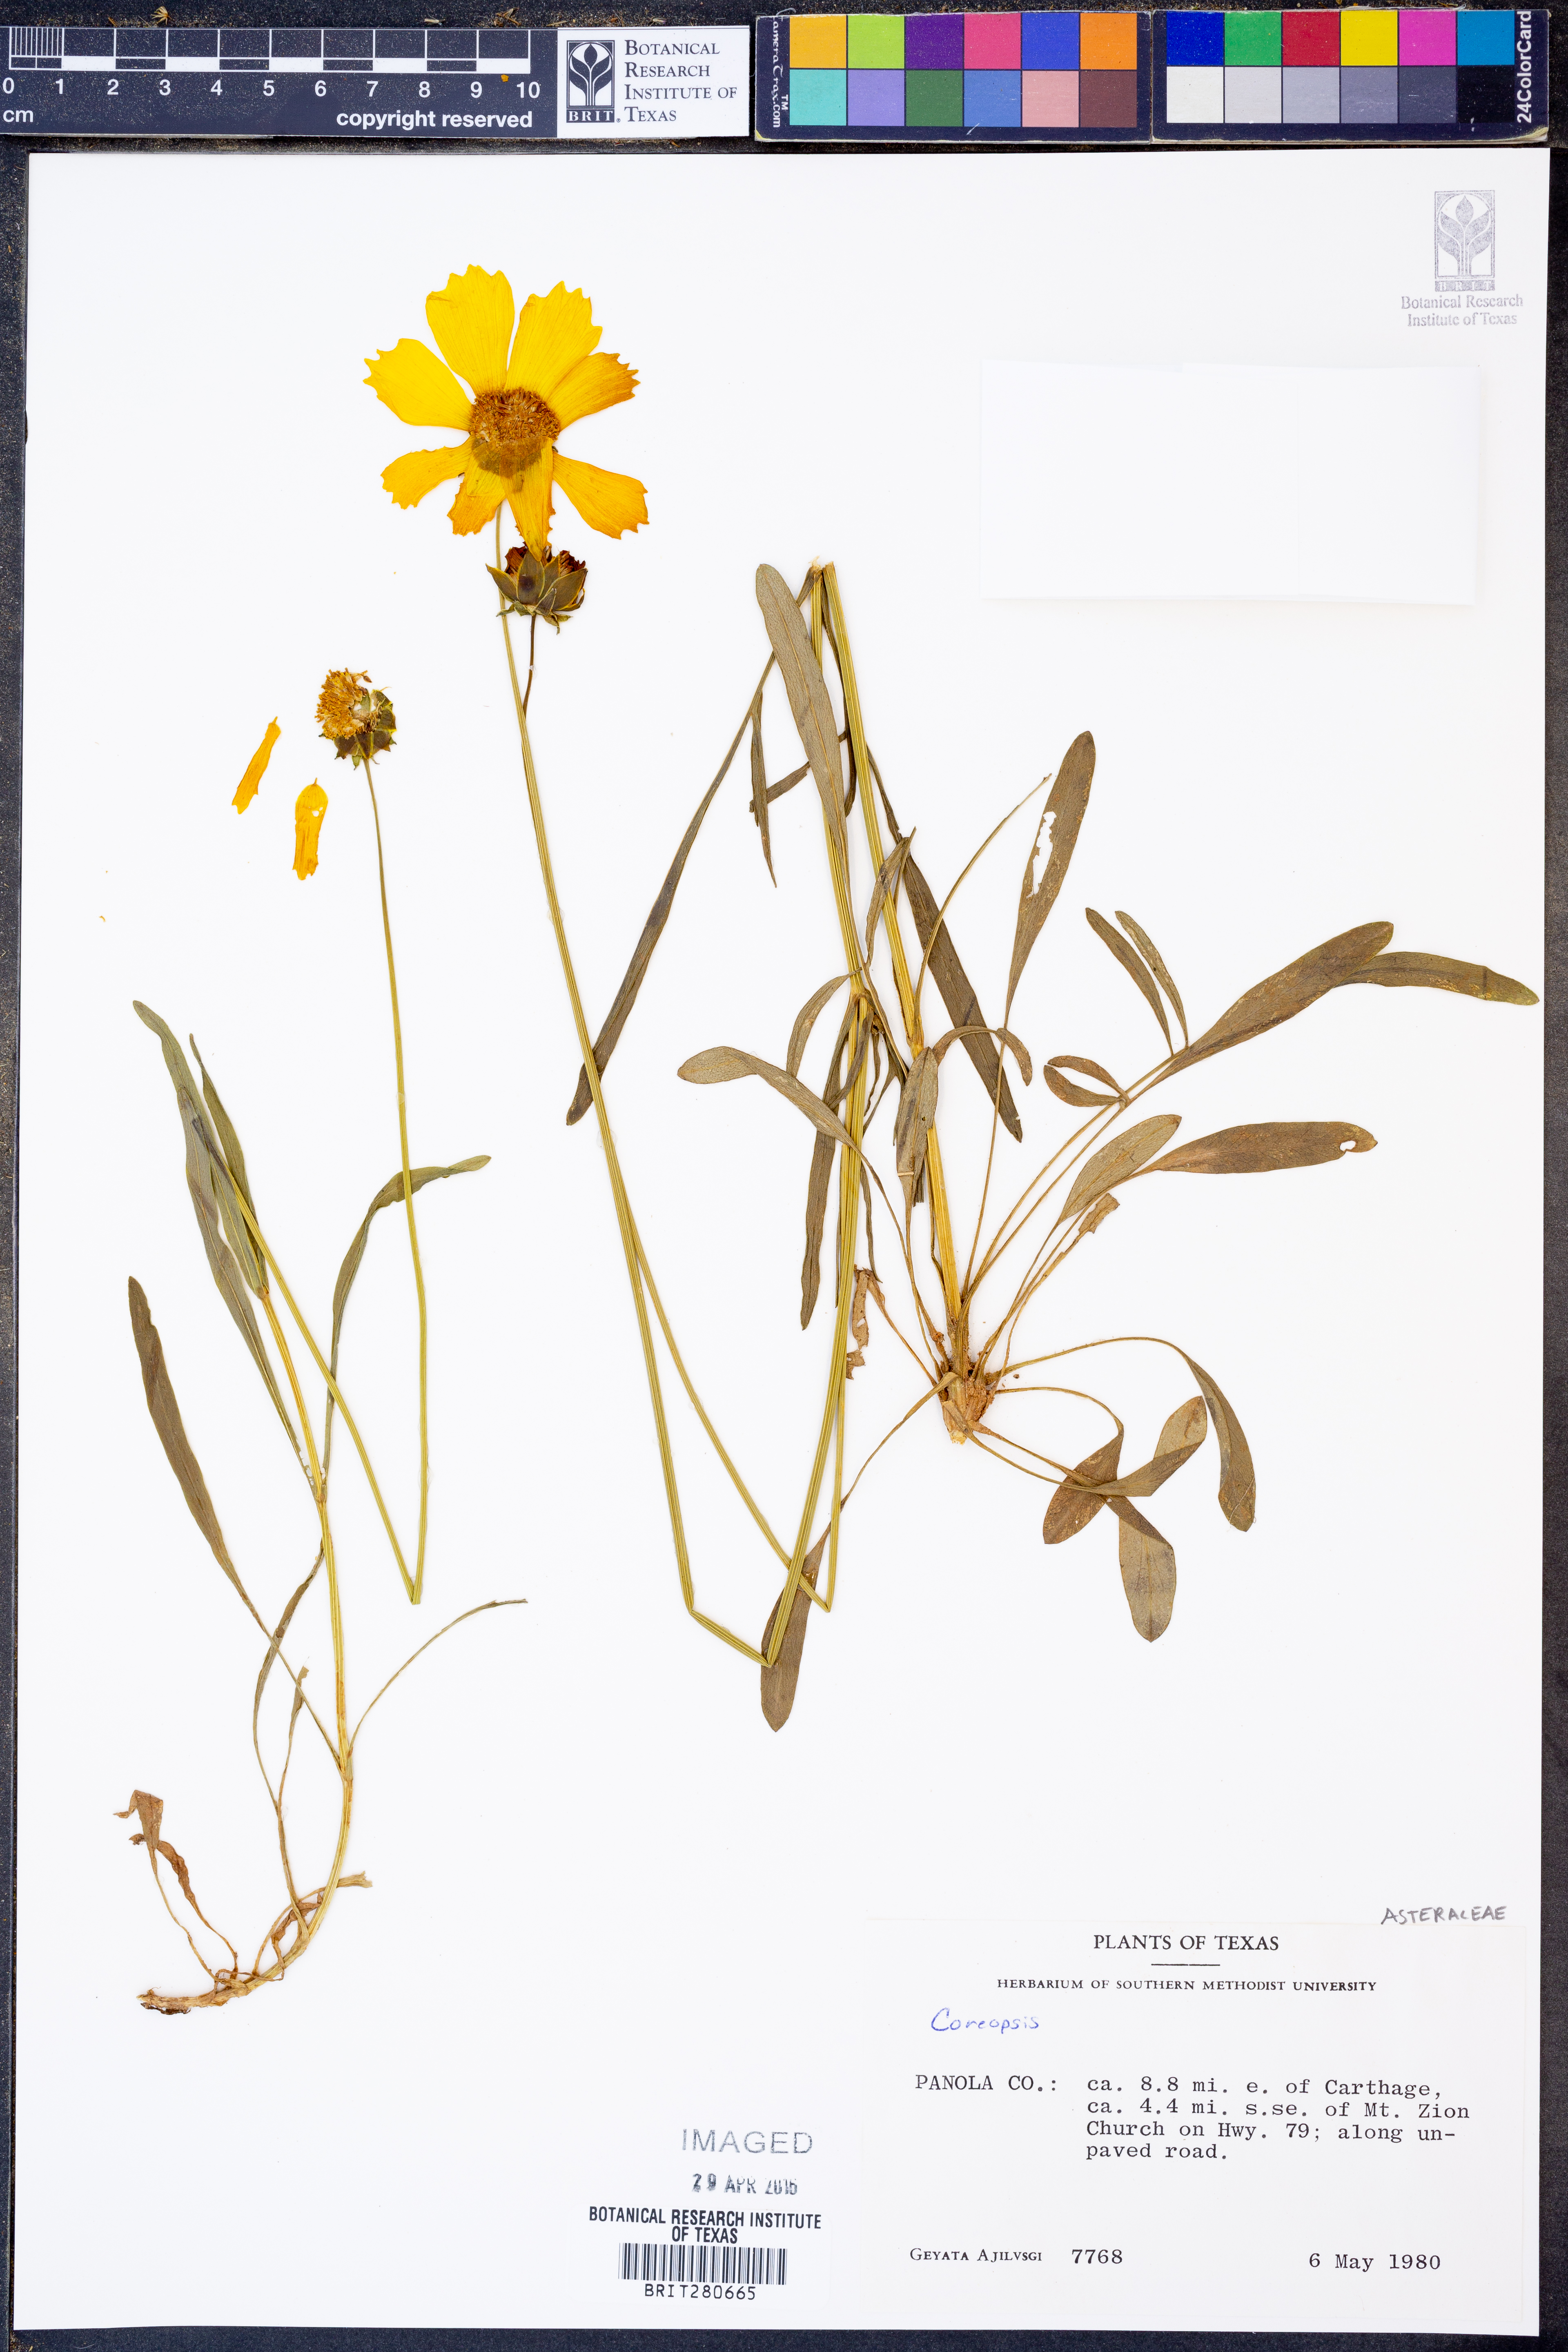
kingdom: Plantae
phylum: Tracheophyta
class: Magnoliopsida
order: Asterales
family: Asteraceae
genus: Coreopsis
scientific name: Coreopsis
